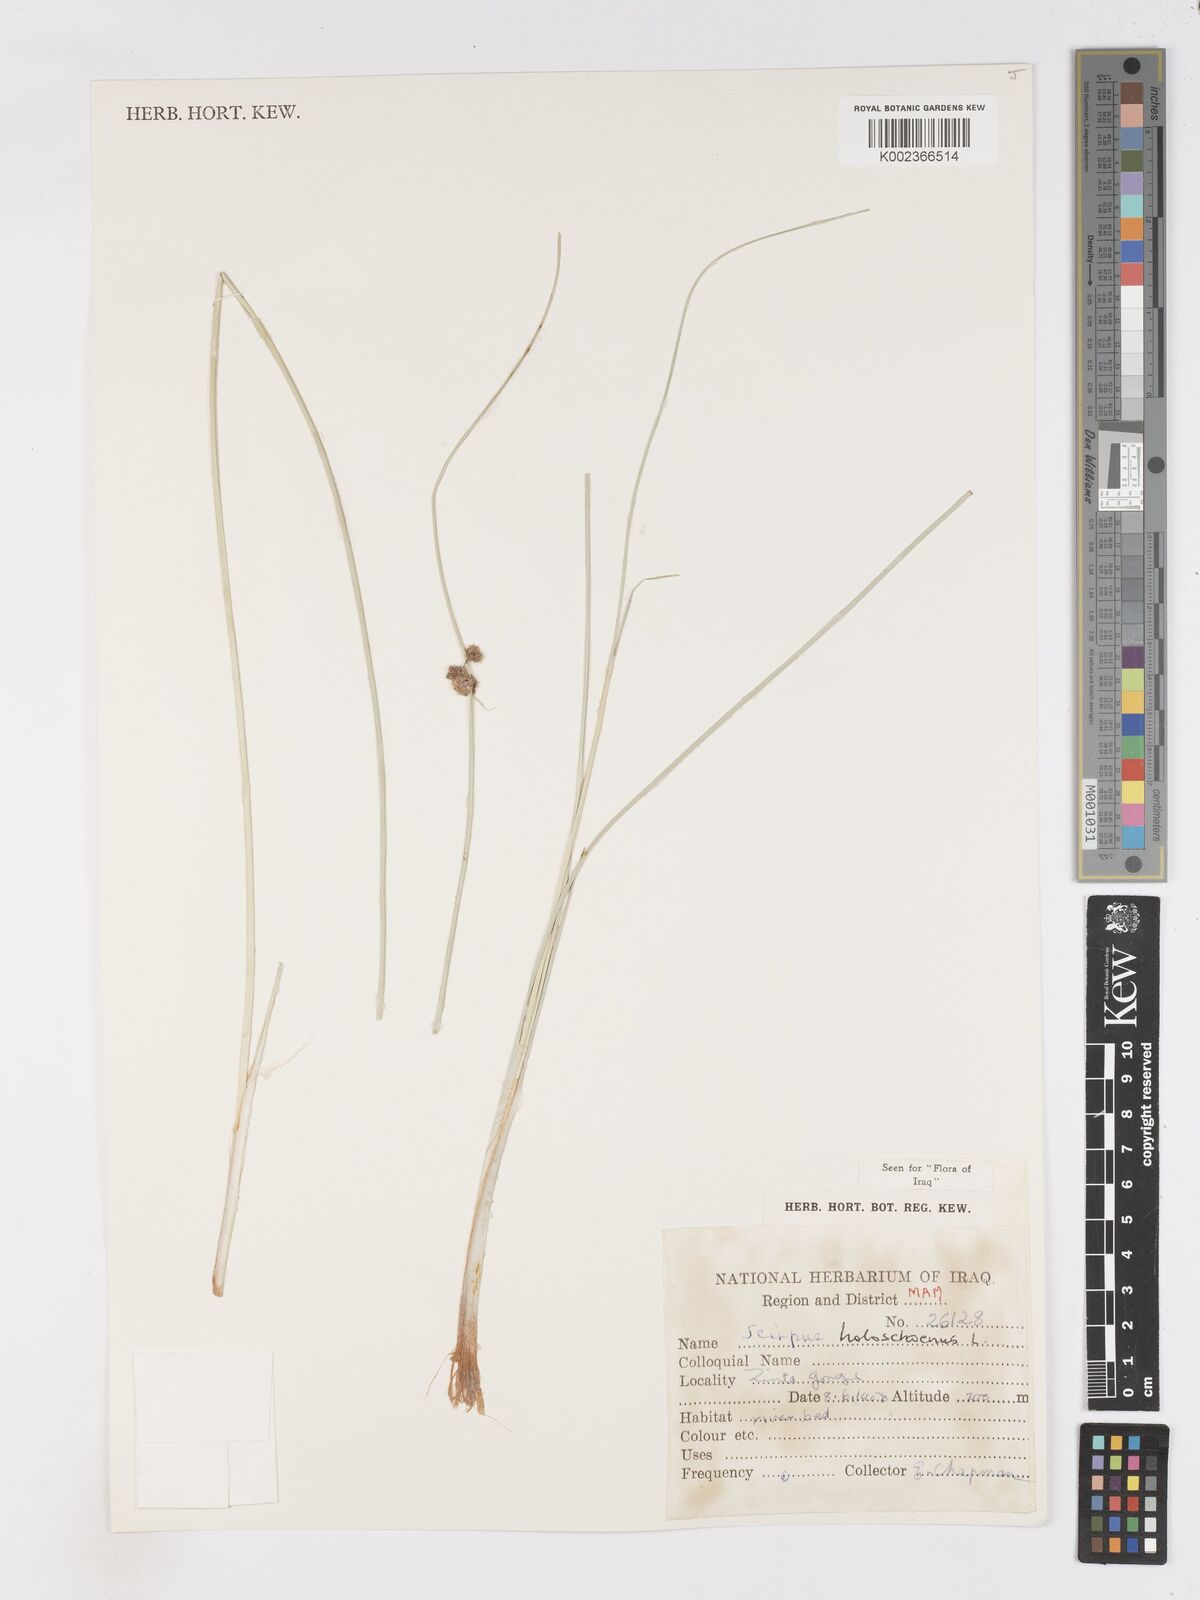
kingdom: Plantae
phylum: Tracheophyta
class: Liliopsida
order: Poales
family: Cyperaceae
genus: Scirpoides
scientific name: Scirpoides holoschoenus
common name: Round-headed club-rush
